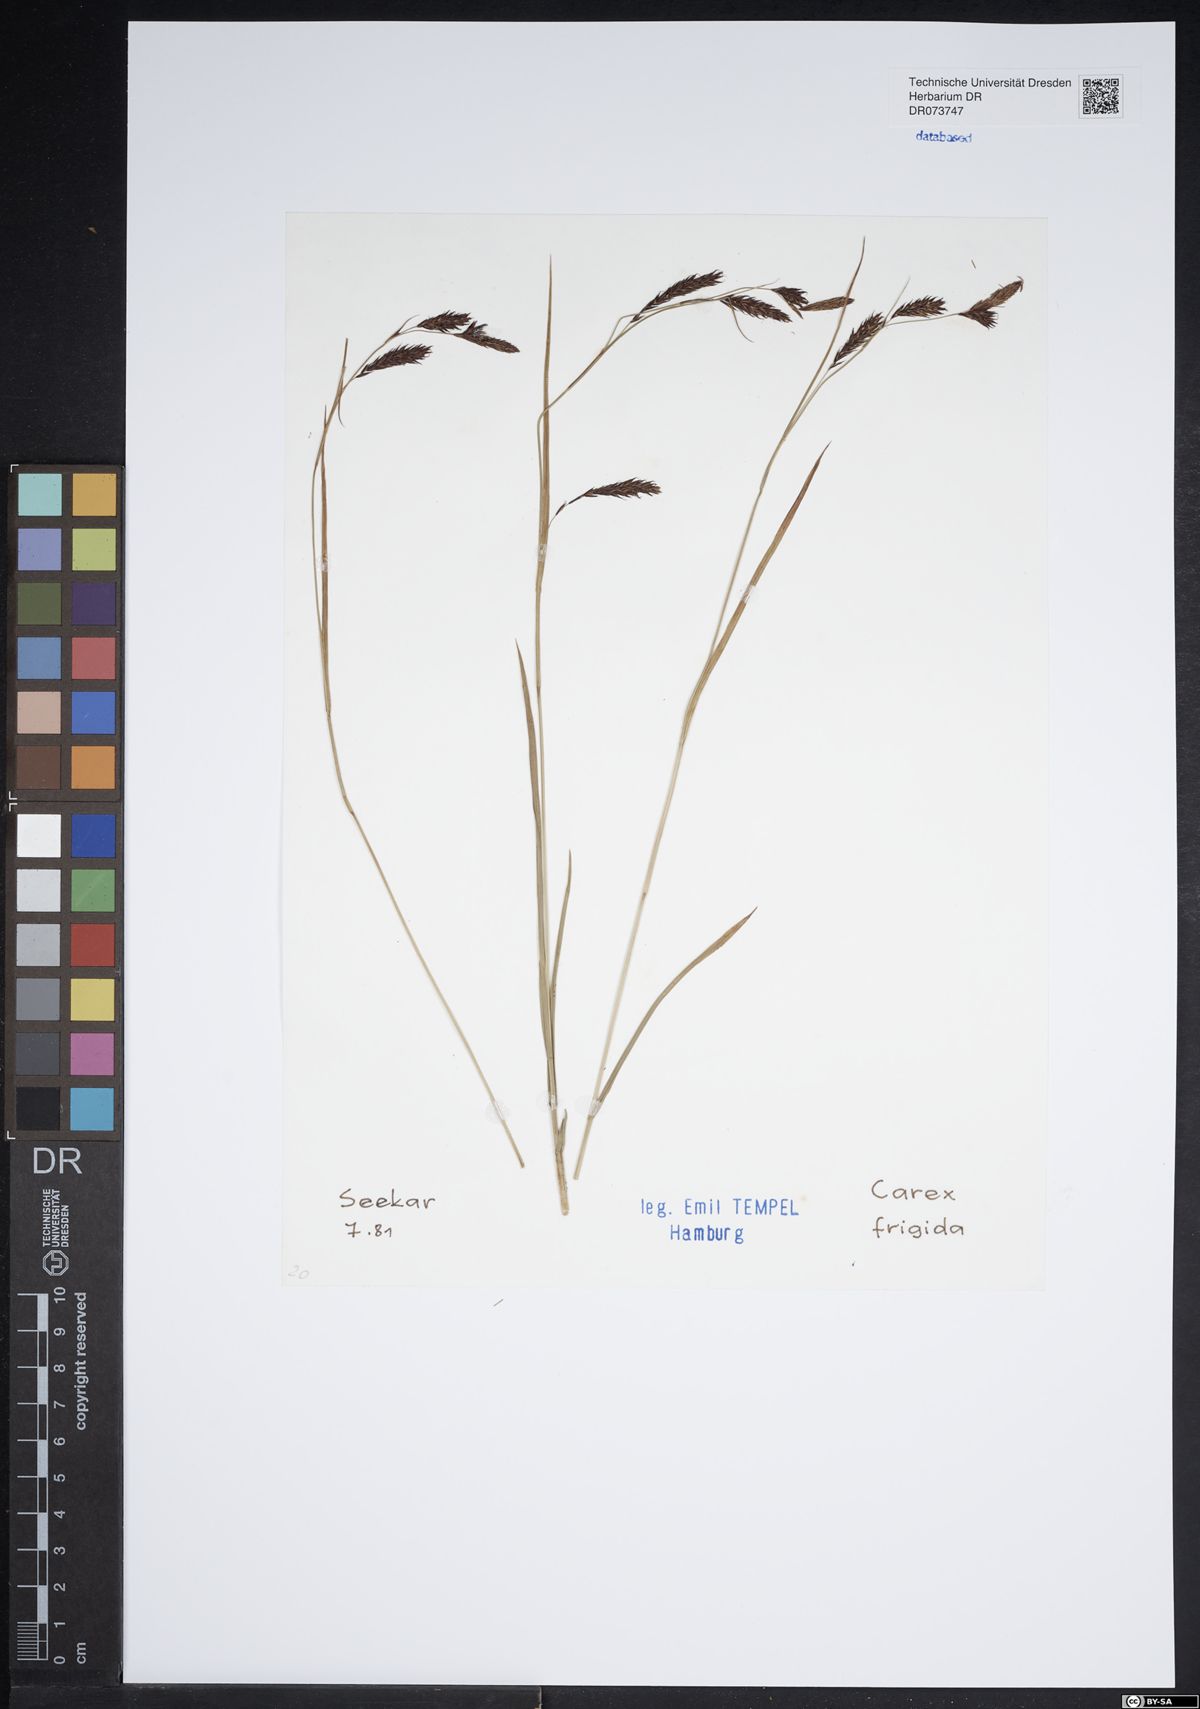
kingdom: Plantae
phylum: Tracheophyta
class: Liliopsida
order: Poales
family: Cyperaceae
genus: Carex
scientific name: Carex frigida
